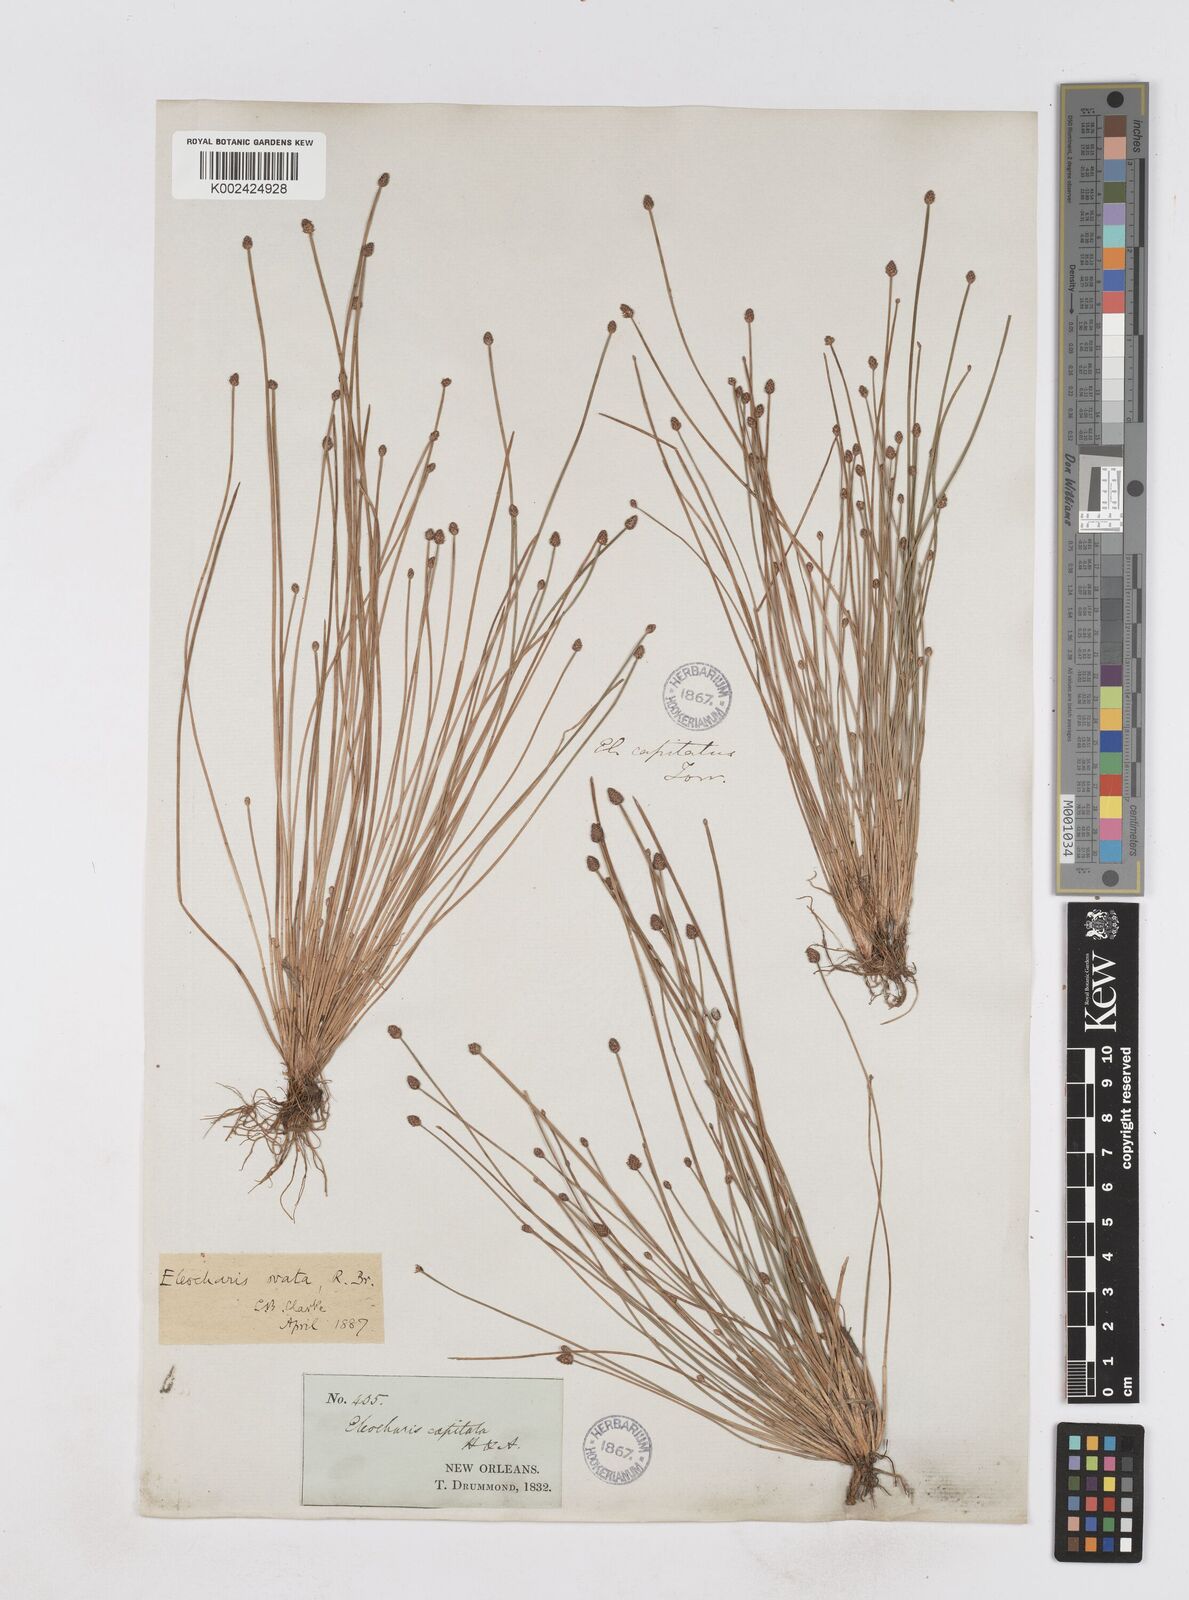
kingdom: Plantae
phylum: Tracheophyta
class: Liliopsida
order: Poales
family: Cyperaceae
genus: Eleocharis
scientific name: Eleocharis ovata
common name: Oval spike-rush
